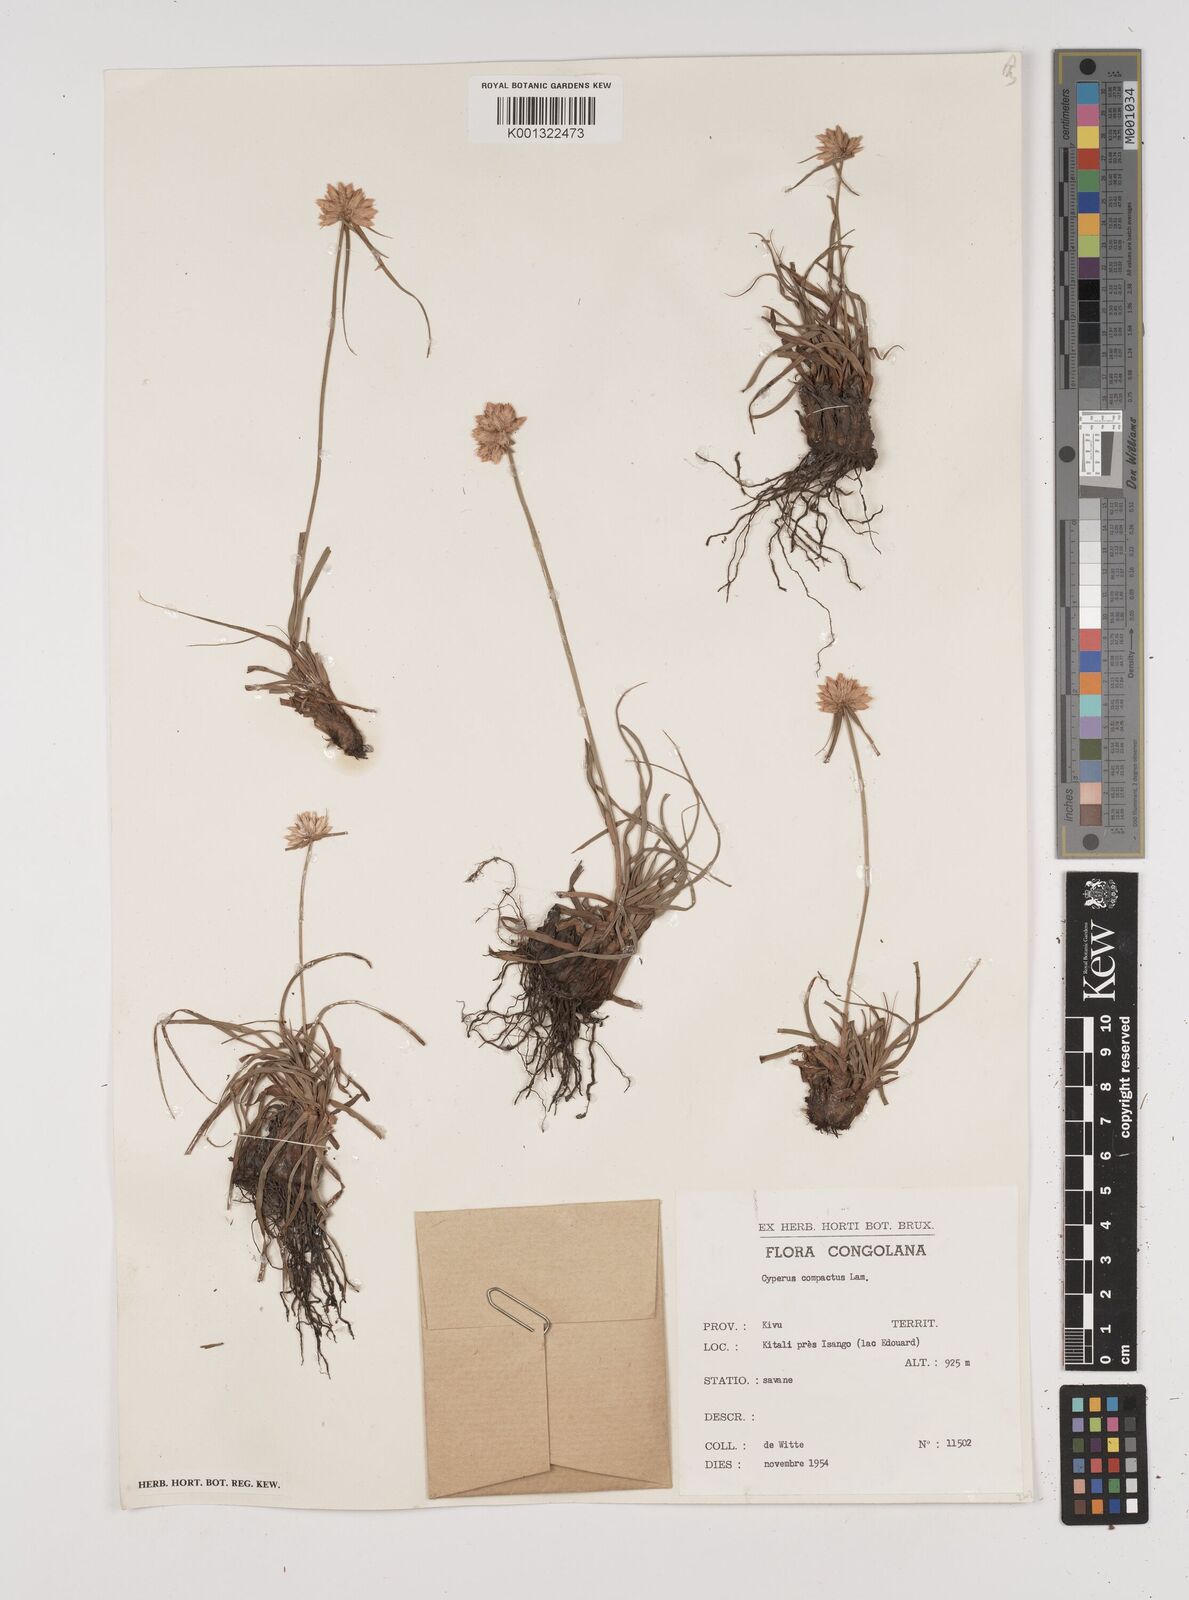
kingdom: Plantae
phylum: Tracheophyta
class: Liliopsida
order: Poales
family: Cyperaceae
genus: Cyperus
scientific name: Cyperus niveus
